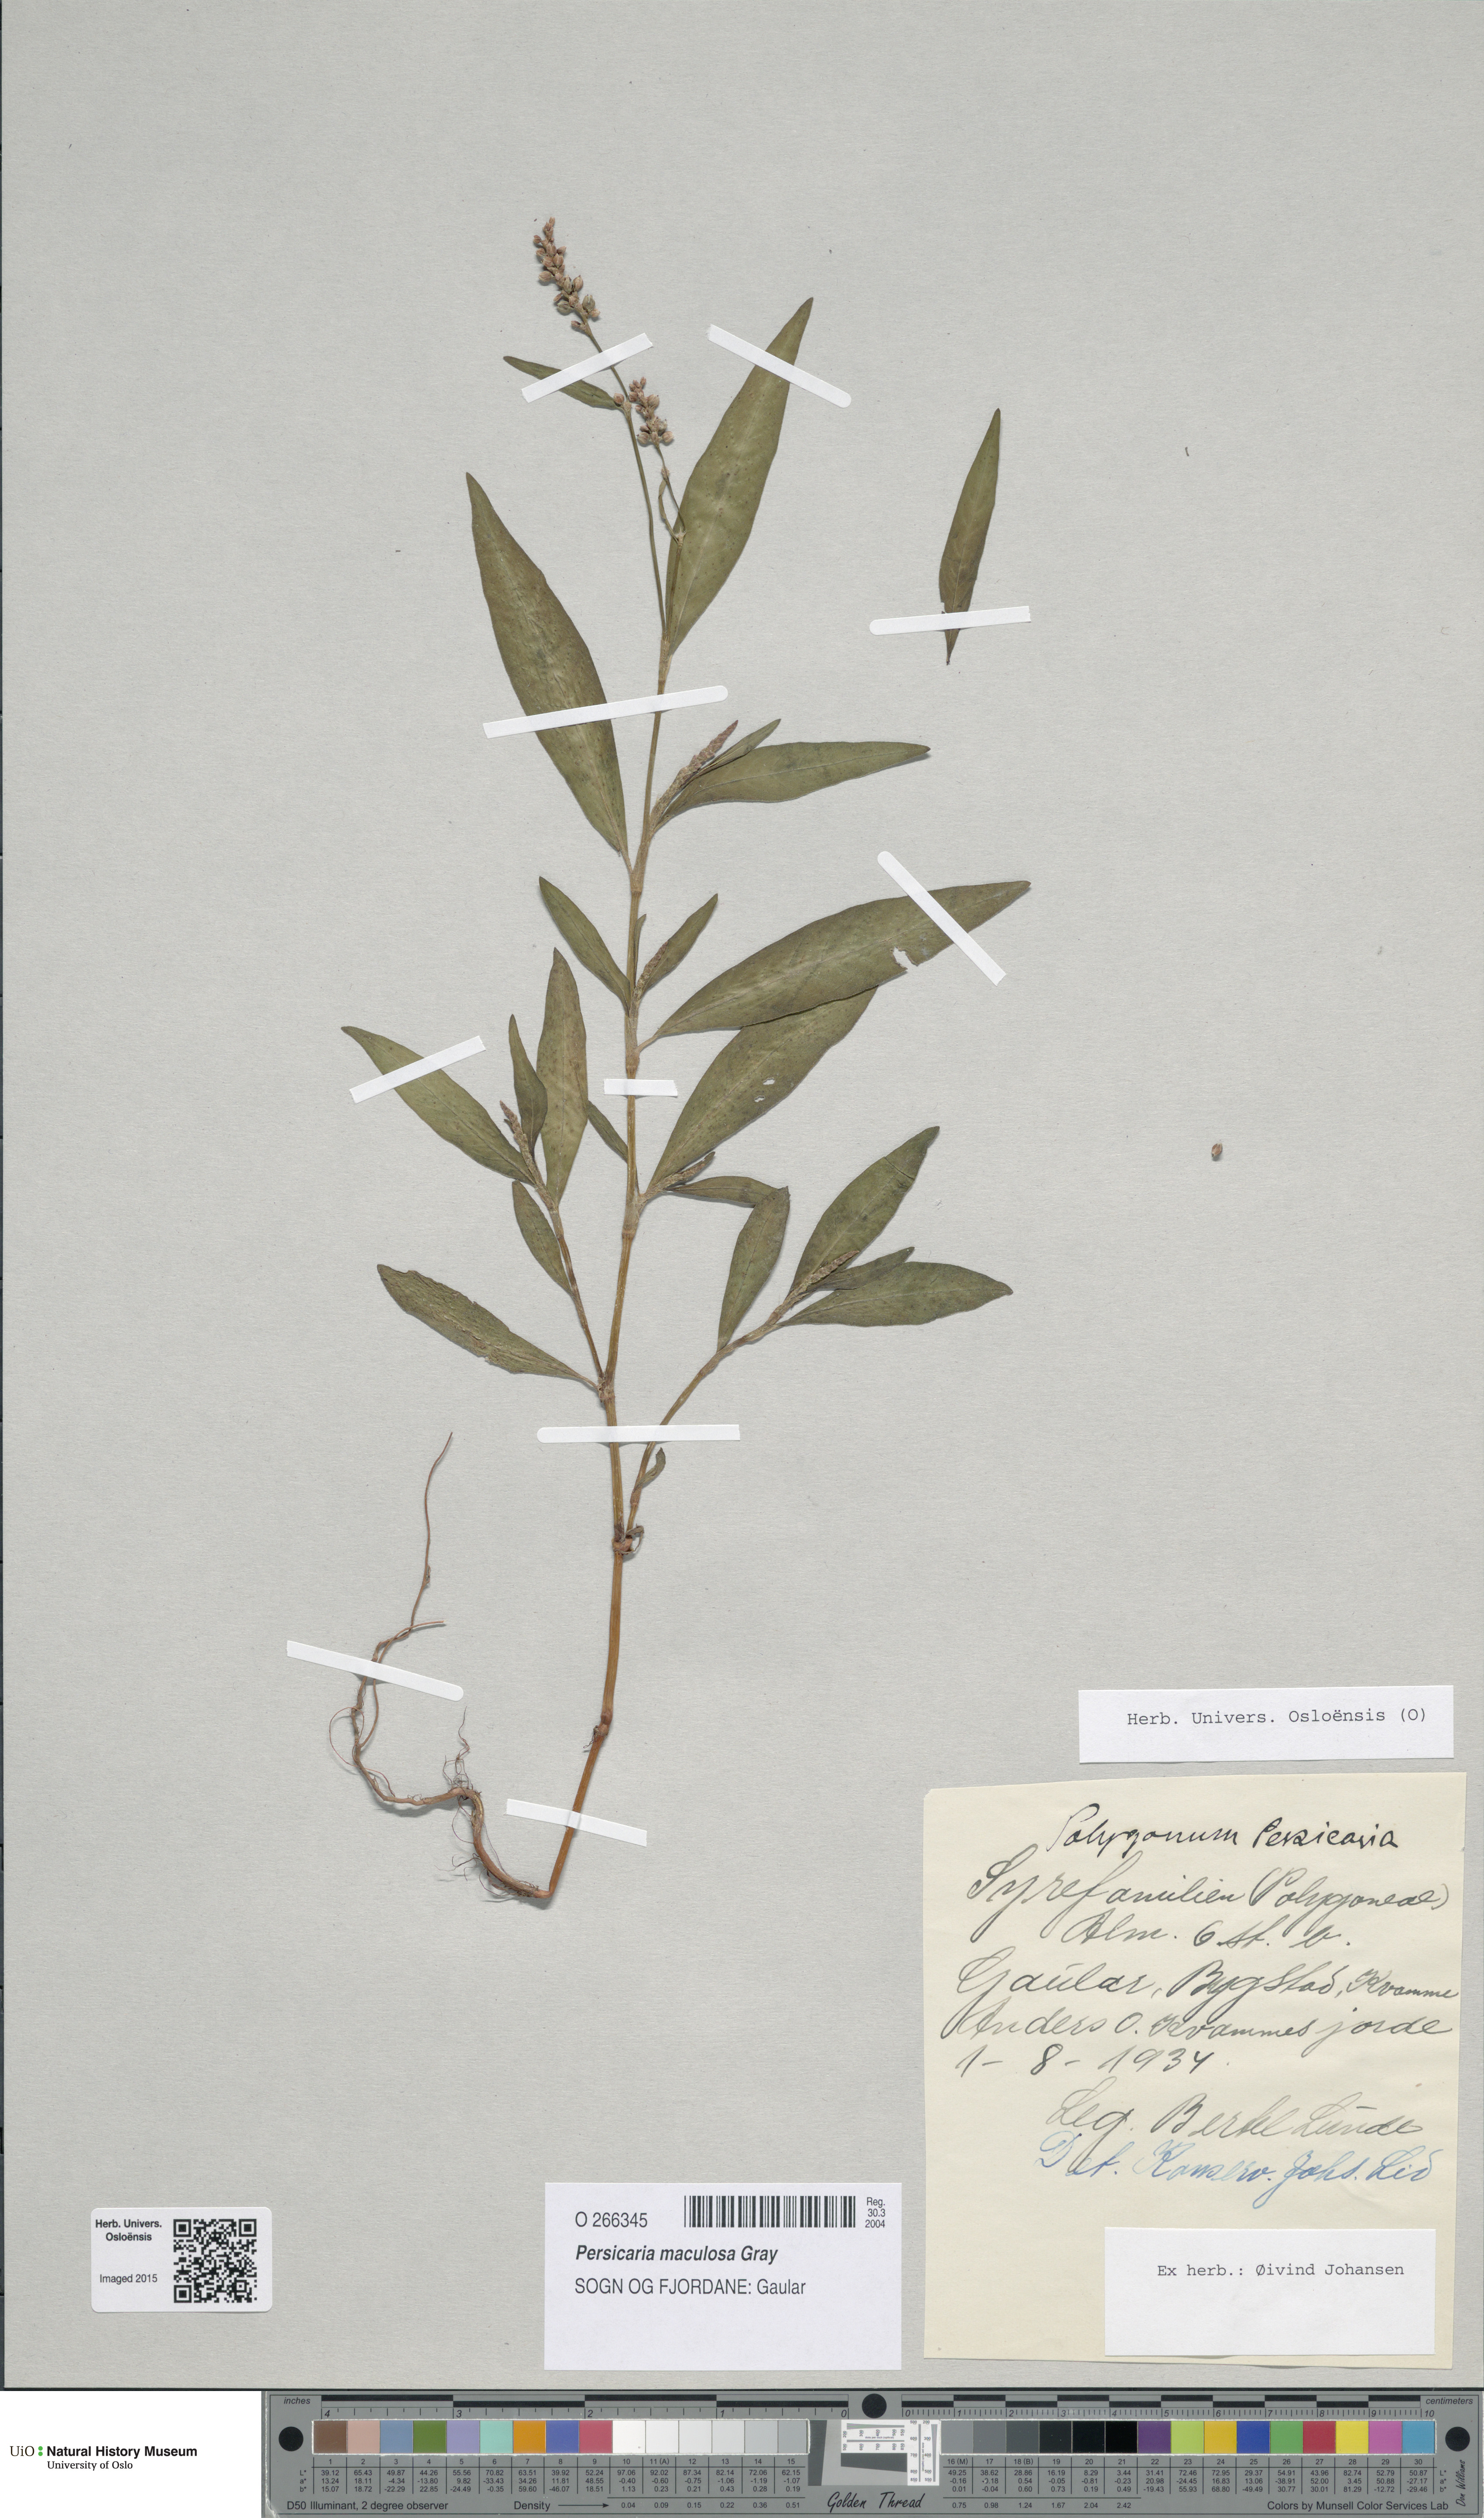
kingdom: Plantae
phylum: Tracheophyta
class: Magnoliopsida
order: Caryophyllales
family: Polygonaceae
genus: Persicaria
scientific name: Persicaria maculosa
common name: Redshank
